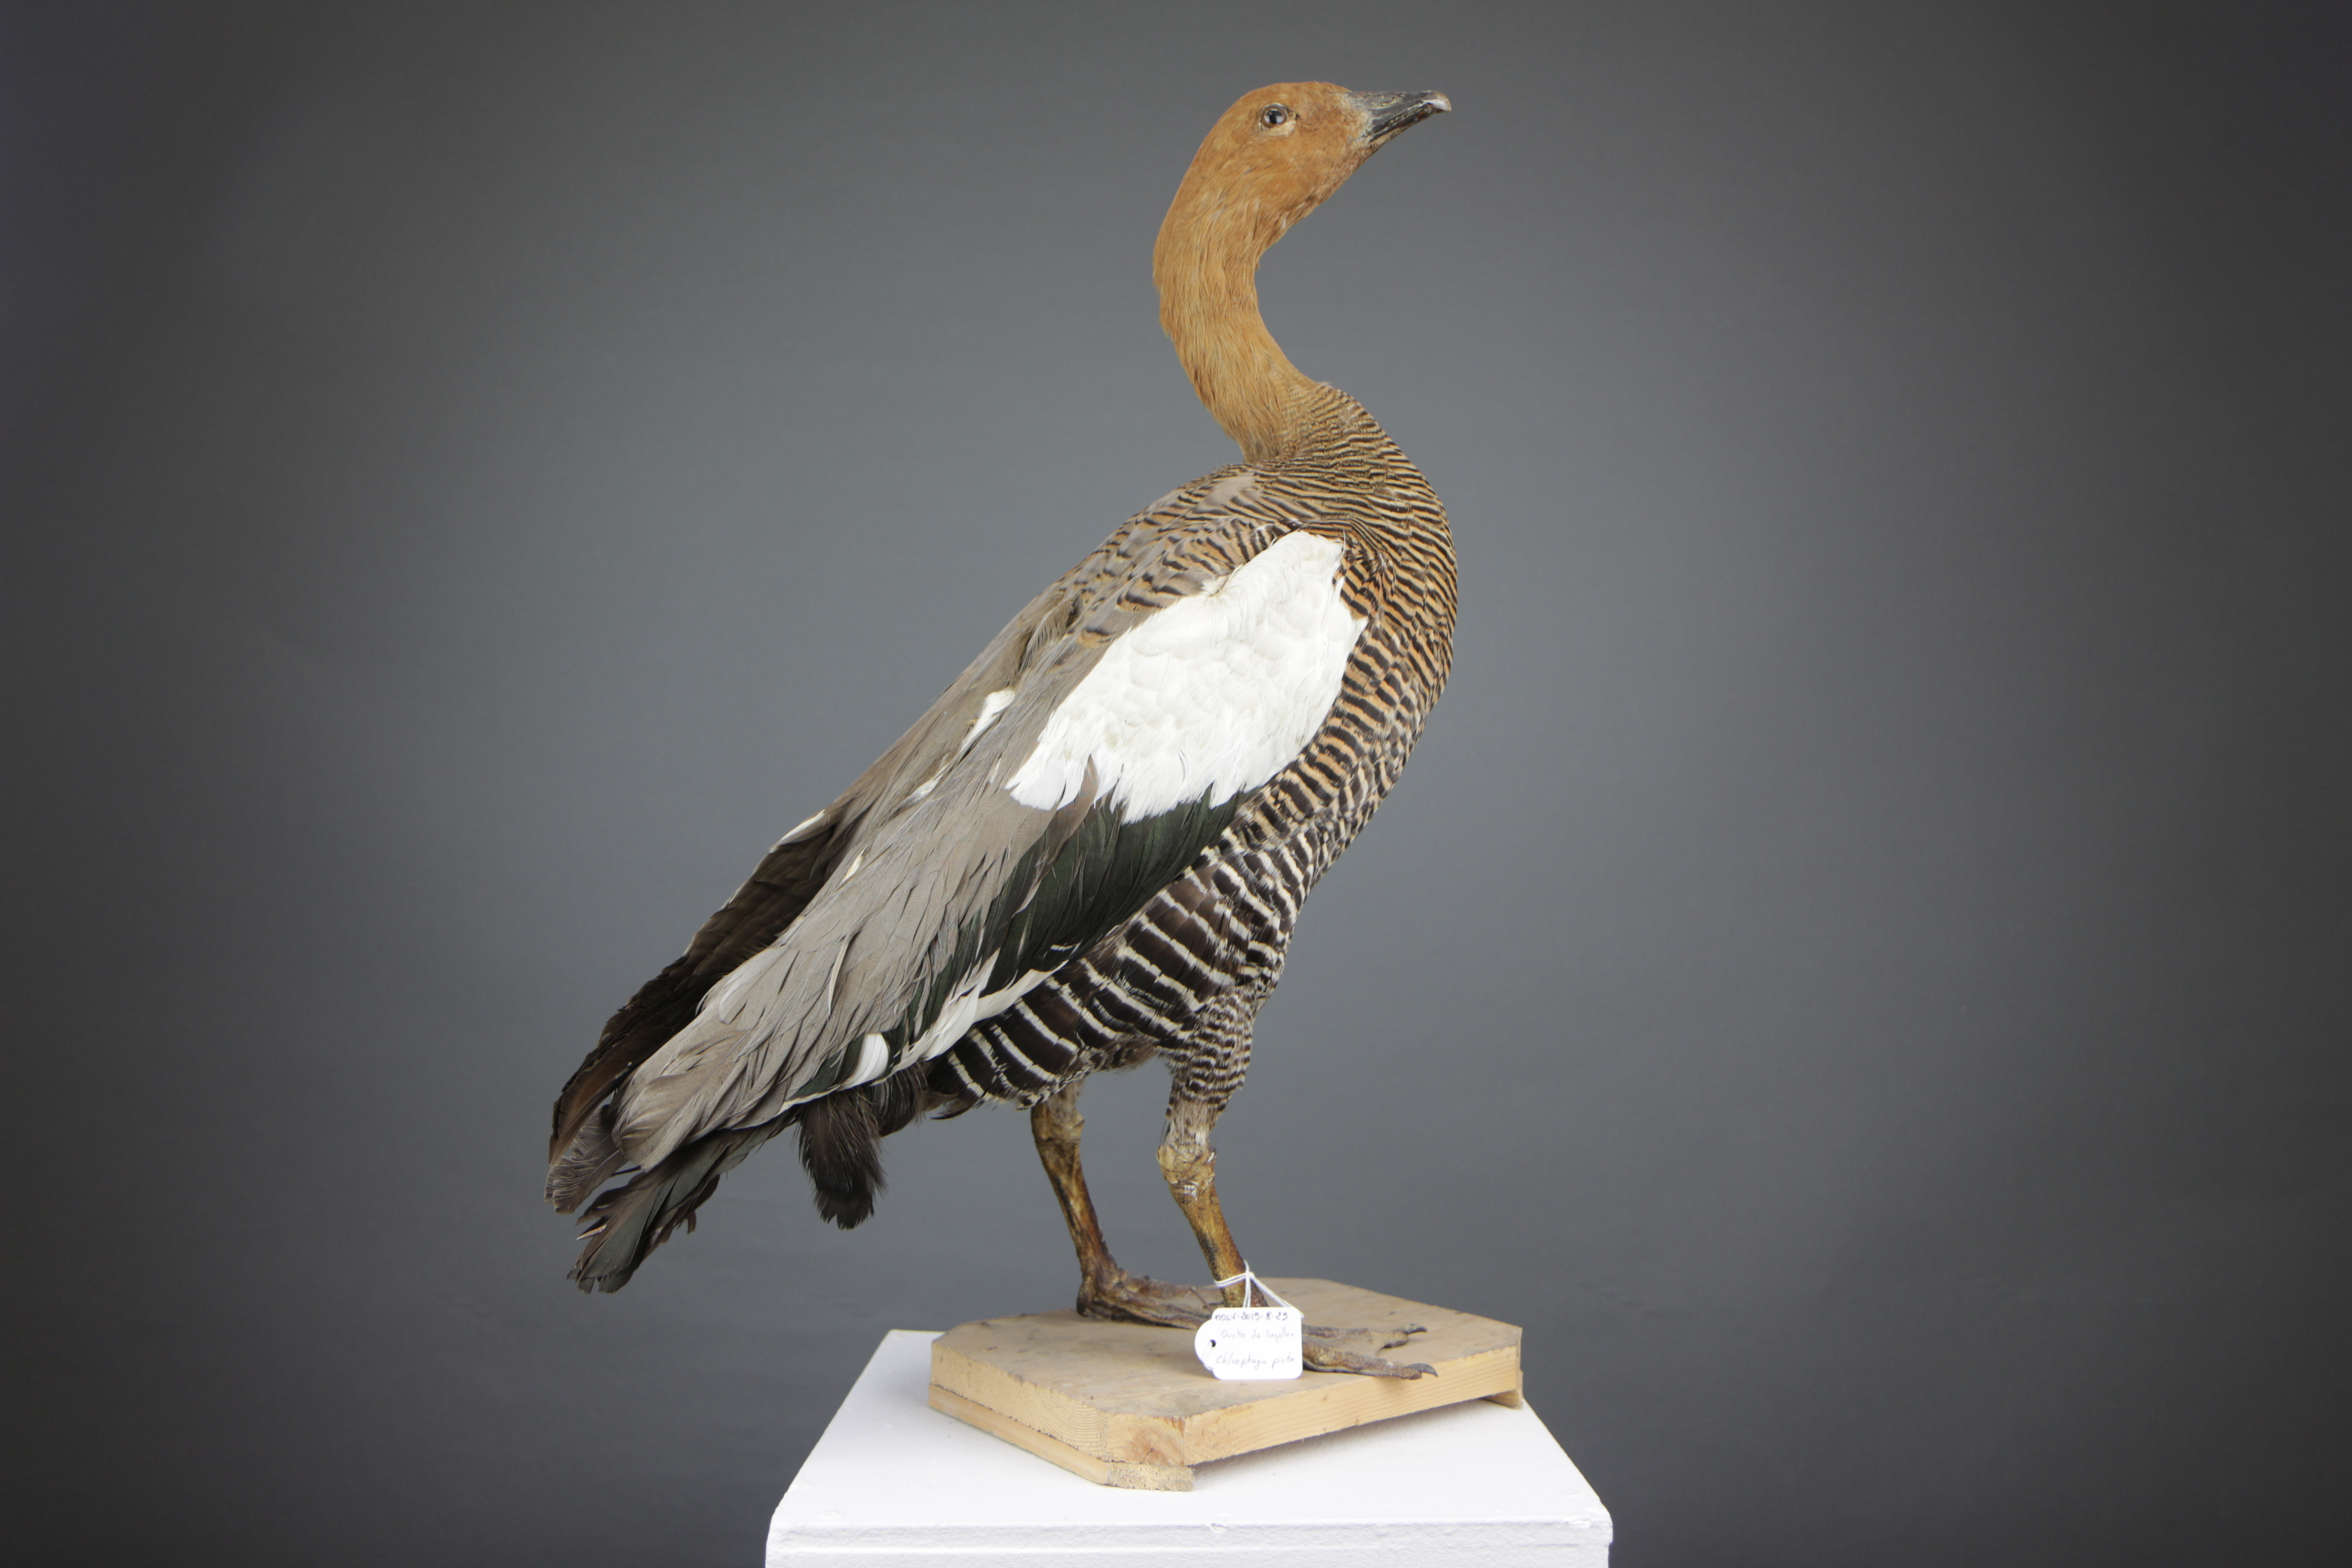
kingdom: Animalia
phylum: Chordata
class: Aves
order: Anseriformes
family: Anatidae
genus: Chloephaga
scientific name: Chloephaga picta
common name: Upland goose
